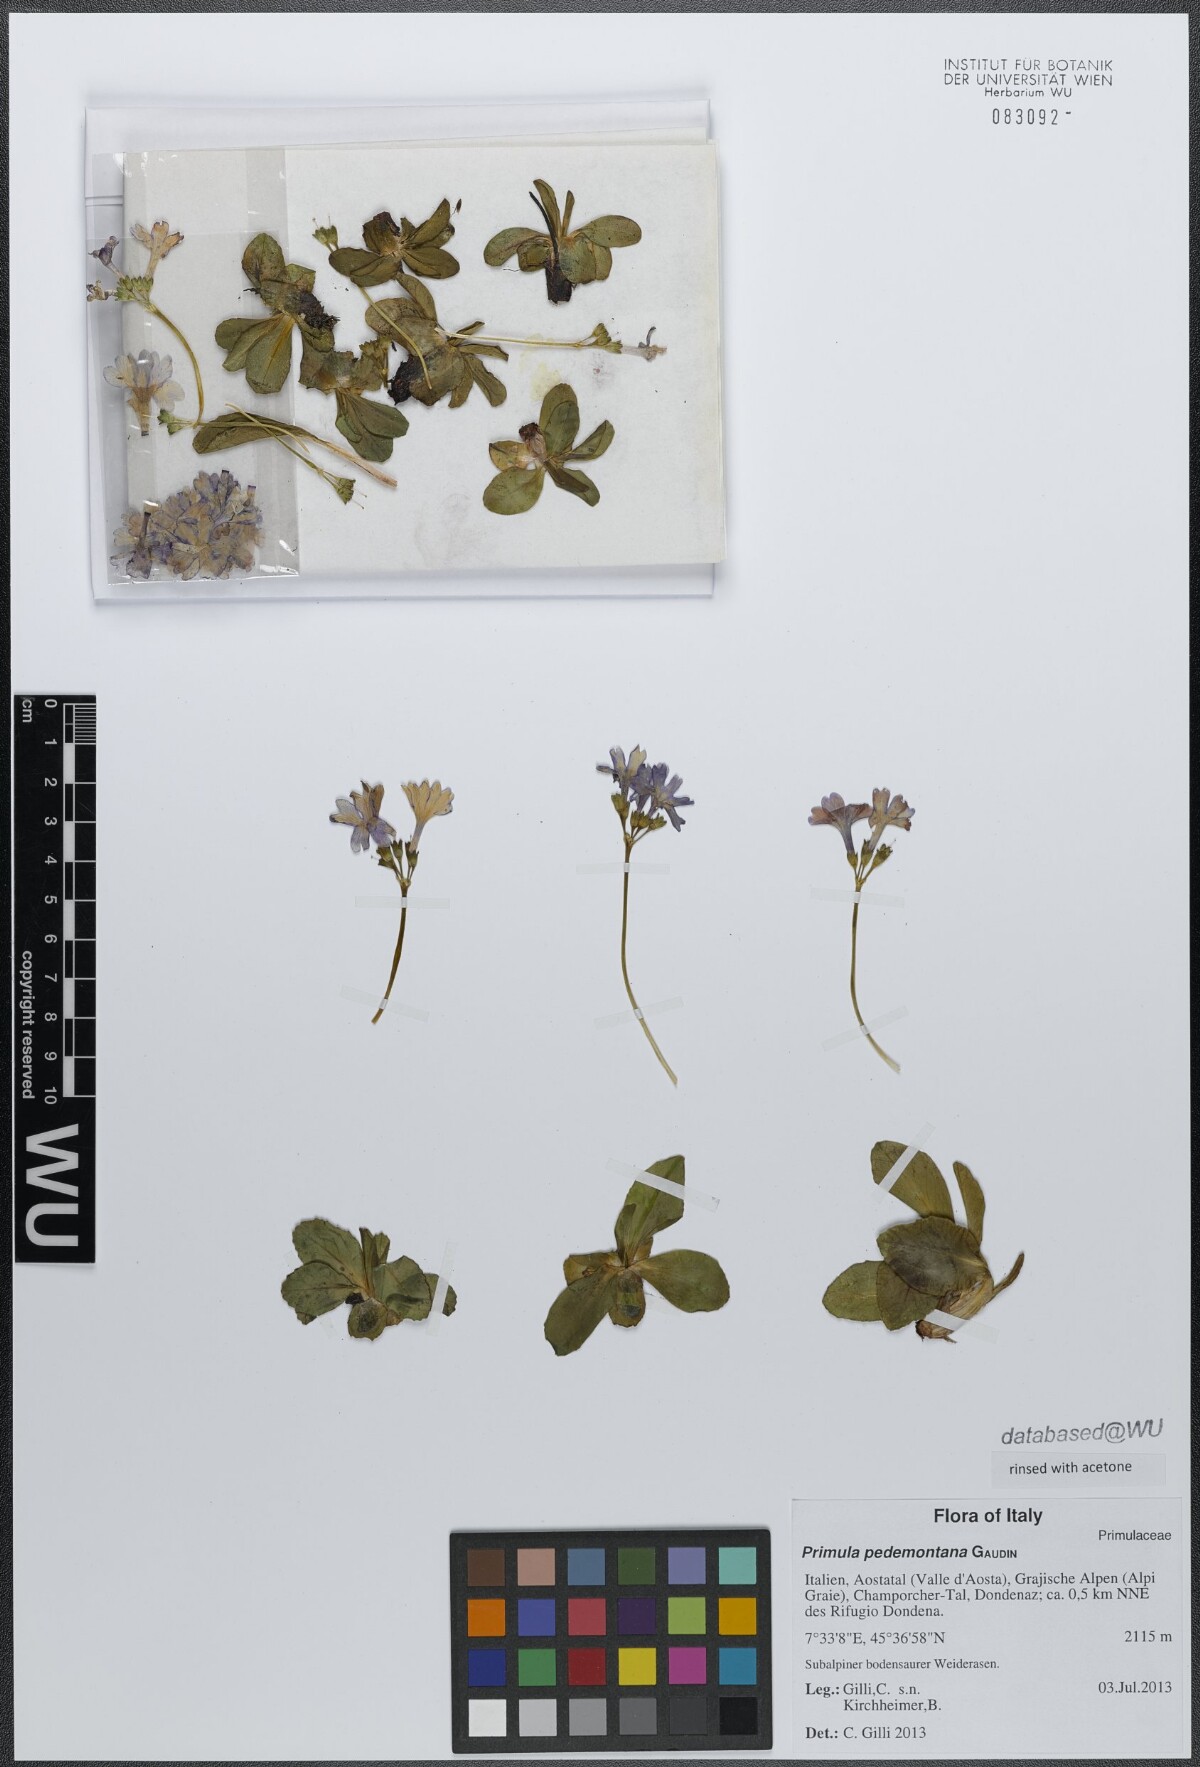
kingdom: Plantae
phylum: Tracheophyta
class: Magnoliopsida
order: Ericales
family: Primulaceae
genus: Primula
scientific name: Primula pedemontana
